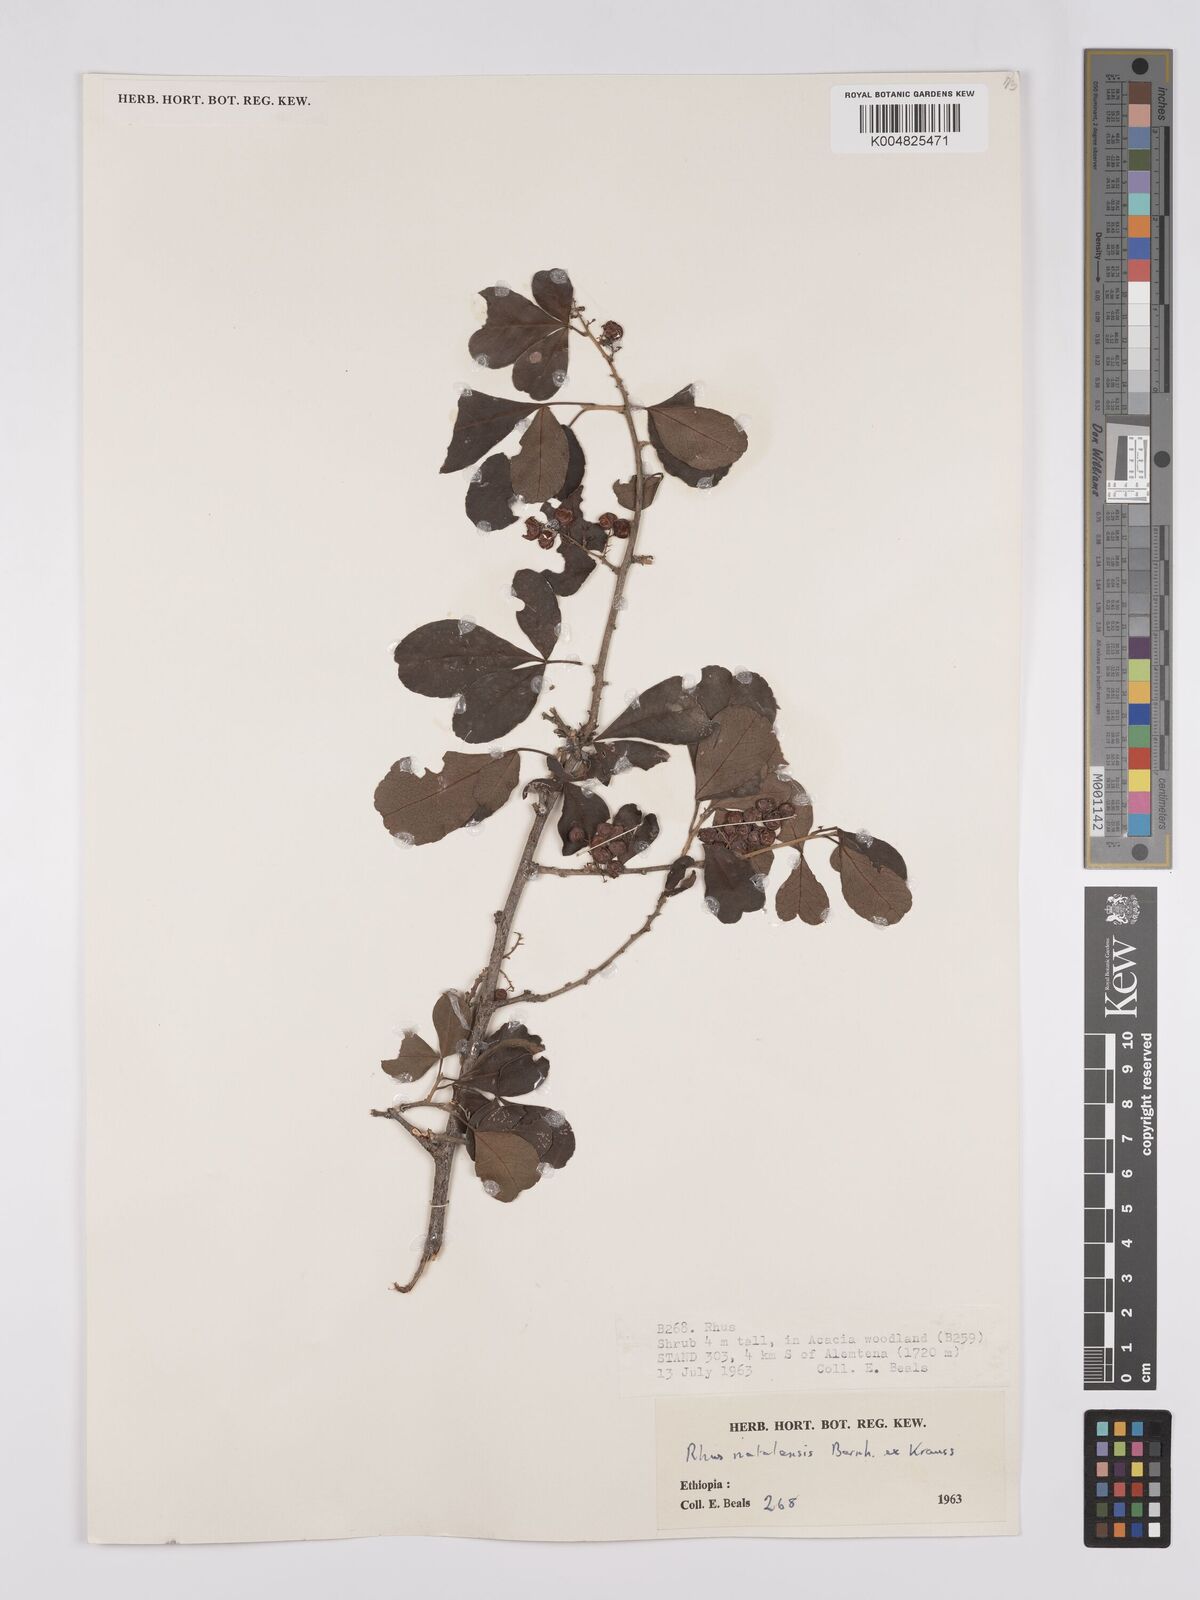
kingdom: Plantae
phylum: Tracheophyta
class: Magnoliopsida
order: Sapindales
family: Anacardiaceae
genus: Searsia
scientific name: Searsia natalensis
